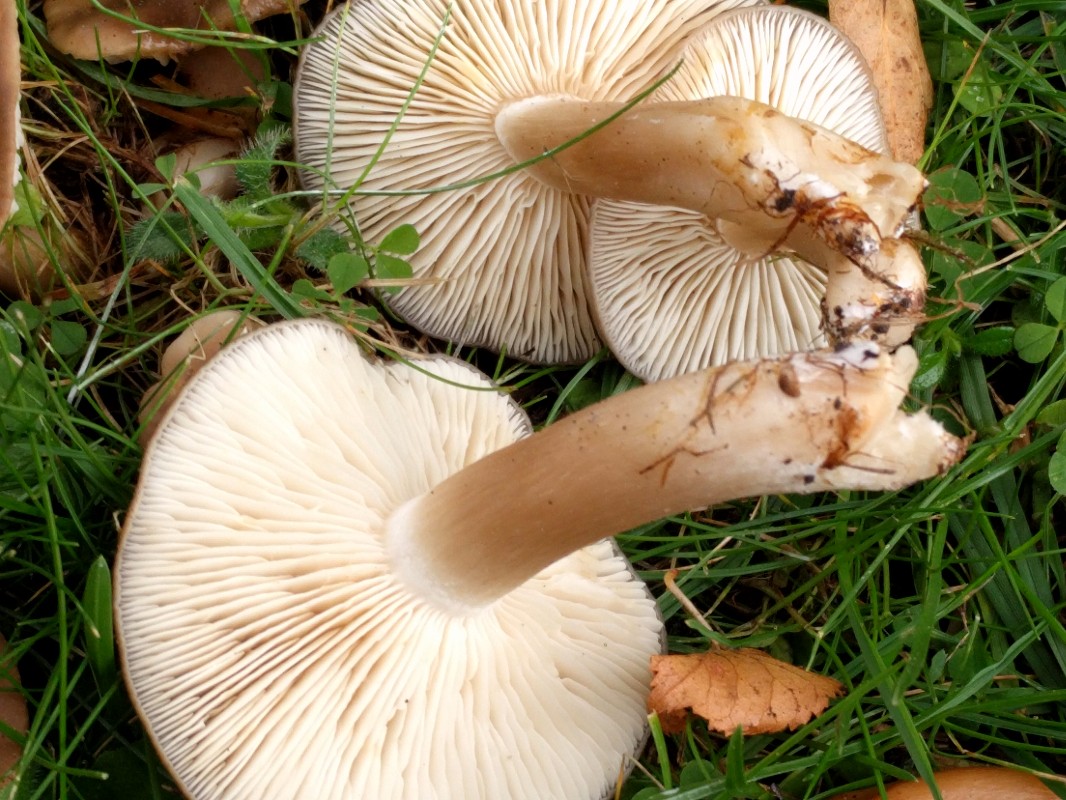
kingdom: Fungi
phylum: Basidiomycota
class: Agaricomycetes
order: Agaricales
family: Lyophyllaceae
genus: Lyophyllum
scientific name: Lyophyllum decastes
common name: Clustered domecap
